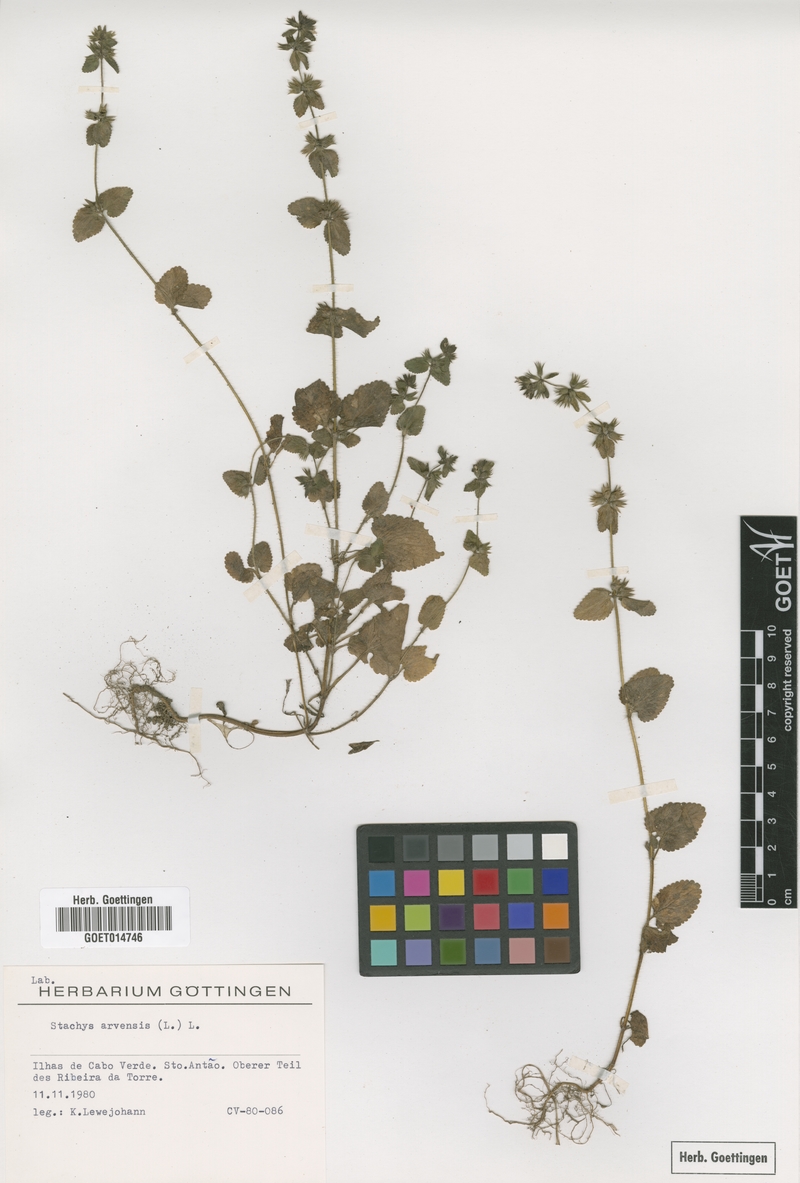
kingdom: Plantae
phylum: Tracheophyta
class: Magnoliopsida
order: Lamiales
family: Lamiaceae
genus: Stachys
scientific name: Stachys arvensis
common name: Field woundwort
